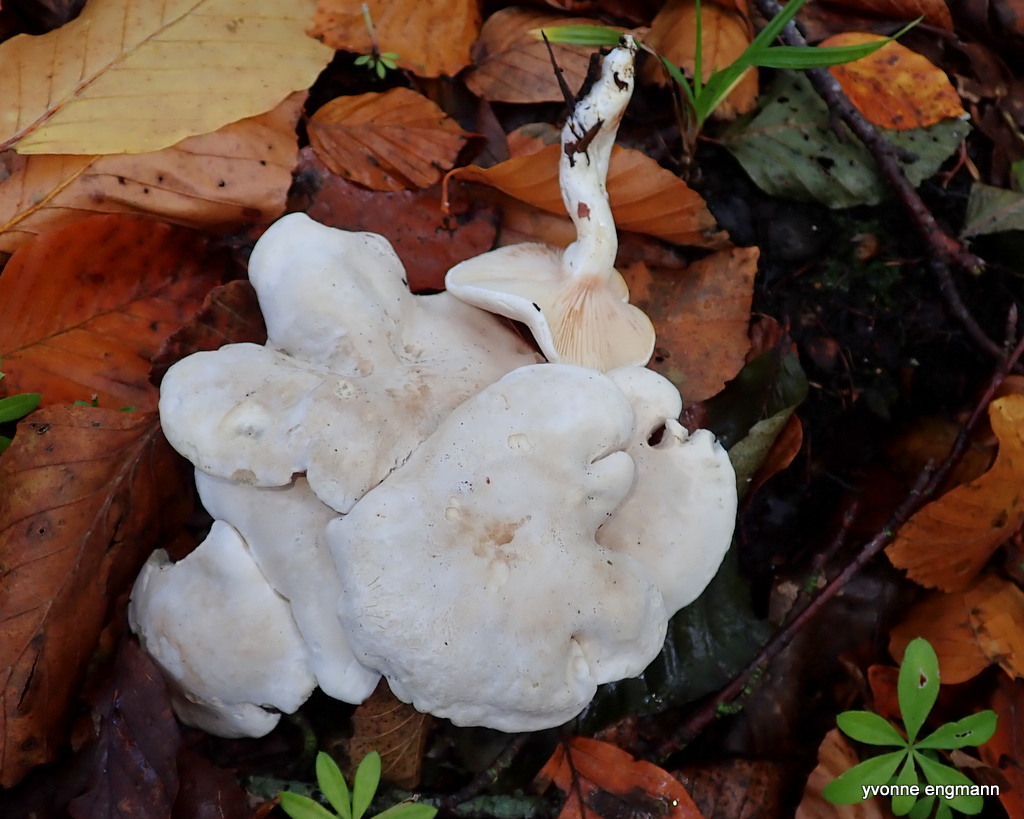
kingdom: Fungi
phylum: Basidiomycota
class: Agaricomycetes
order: Agaricales
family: Entolomataceae
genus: Clitopilus
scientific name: Clitopilus prunulus
